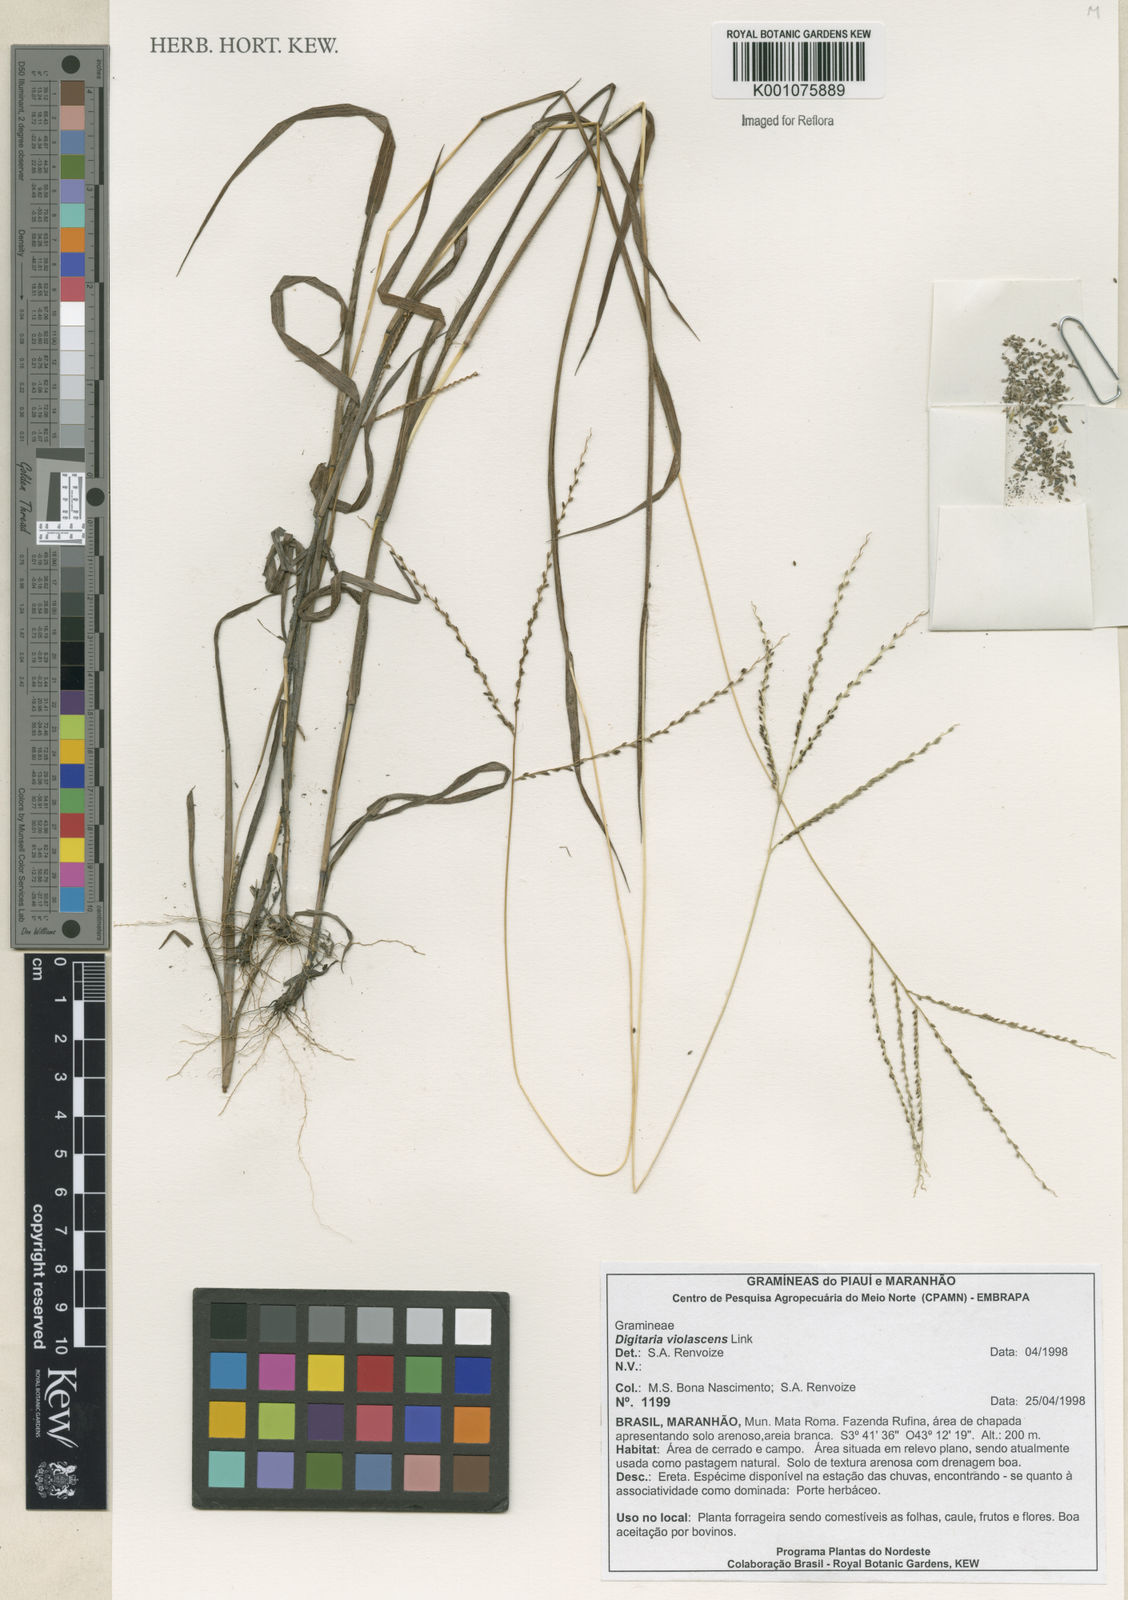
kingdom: Plantae
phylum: Tracheophyta
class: Liliopsida
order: Poales
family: Poaceae
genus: Digitaria
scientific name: Digitaria violascens
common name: Violet crabgrass
